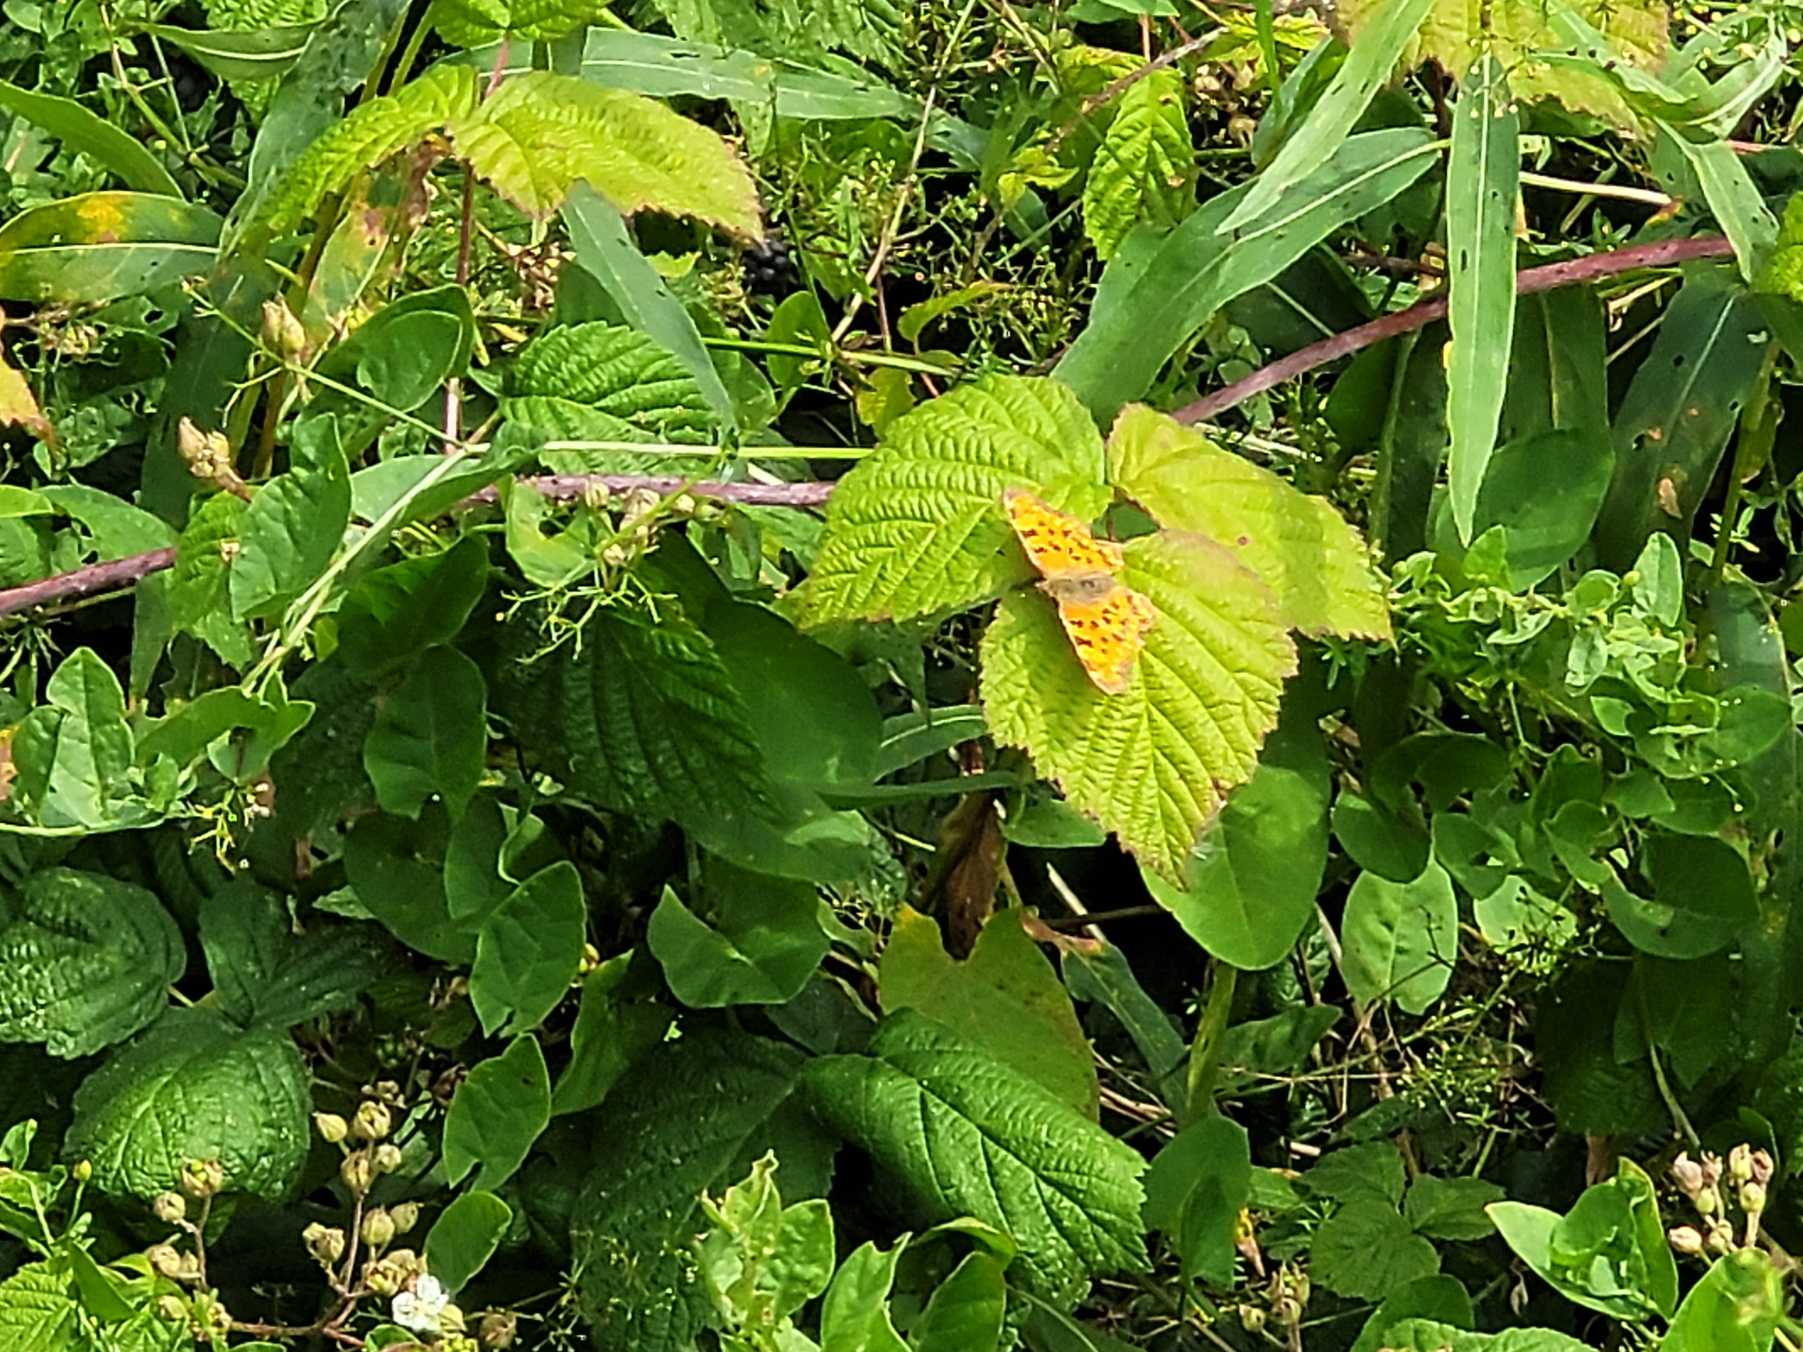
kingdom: Animalia
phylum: Arthropoda
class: Insecta
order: Lepidoptera
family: Nymphalidae
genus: Polygonia
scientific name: Polygonia c-album
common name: Det hvide C
